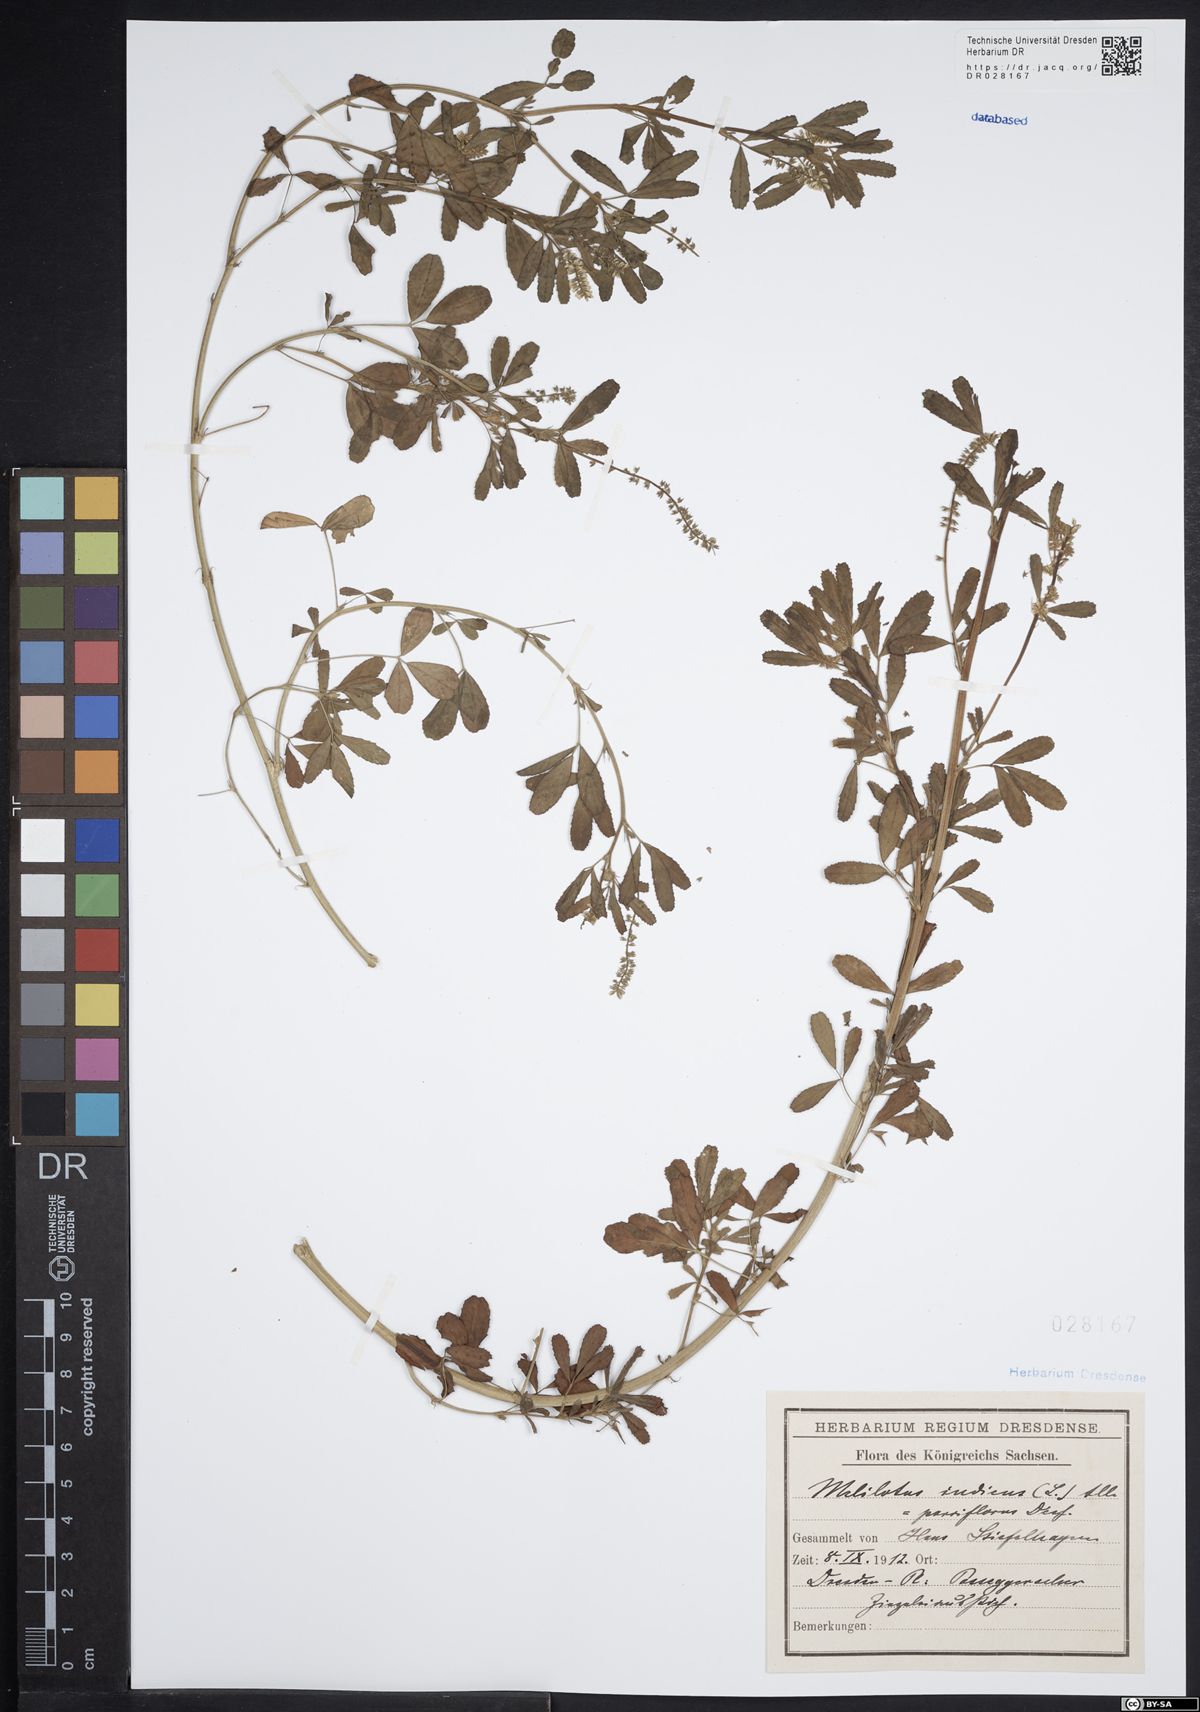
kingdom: Plantae
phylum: Tracheophyta
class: Magnoliopsida
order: Fabales
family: Fabaceae
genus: Melilotus
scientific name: Melilotus indicus
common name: Small melilot
